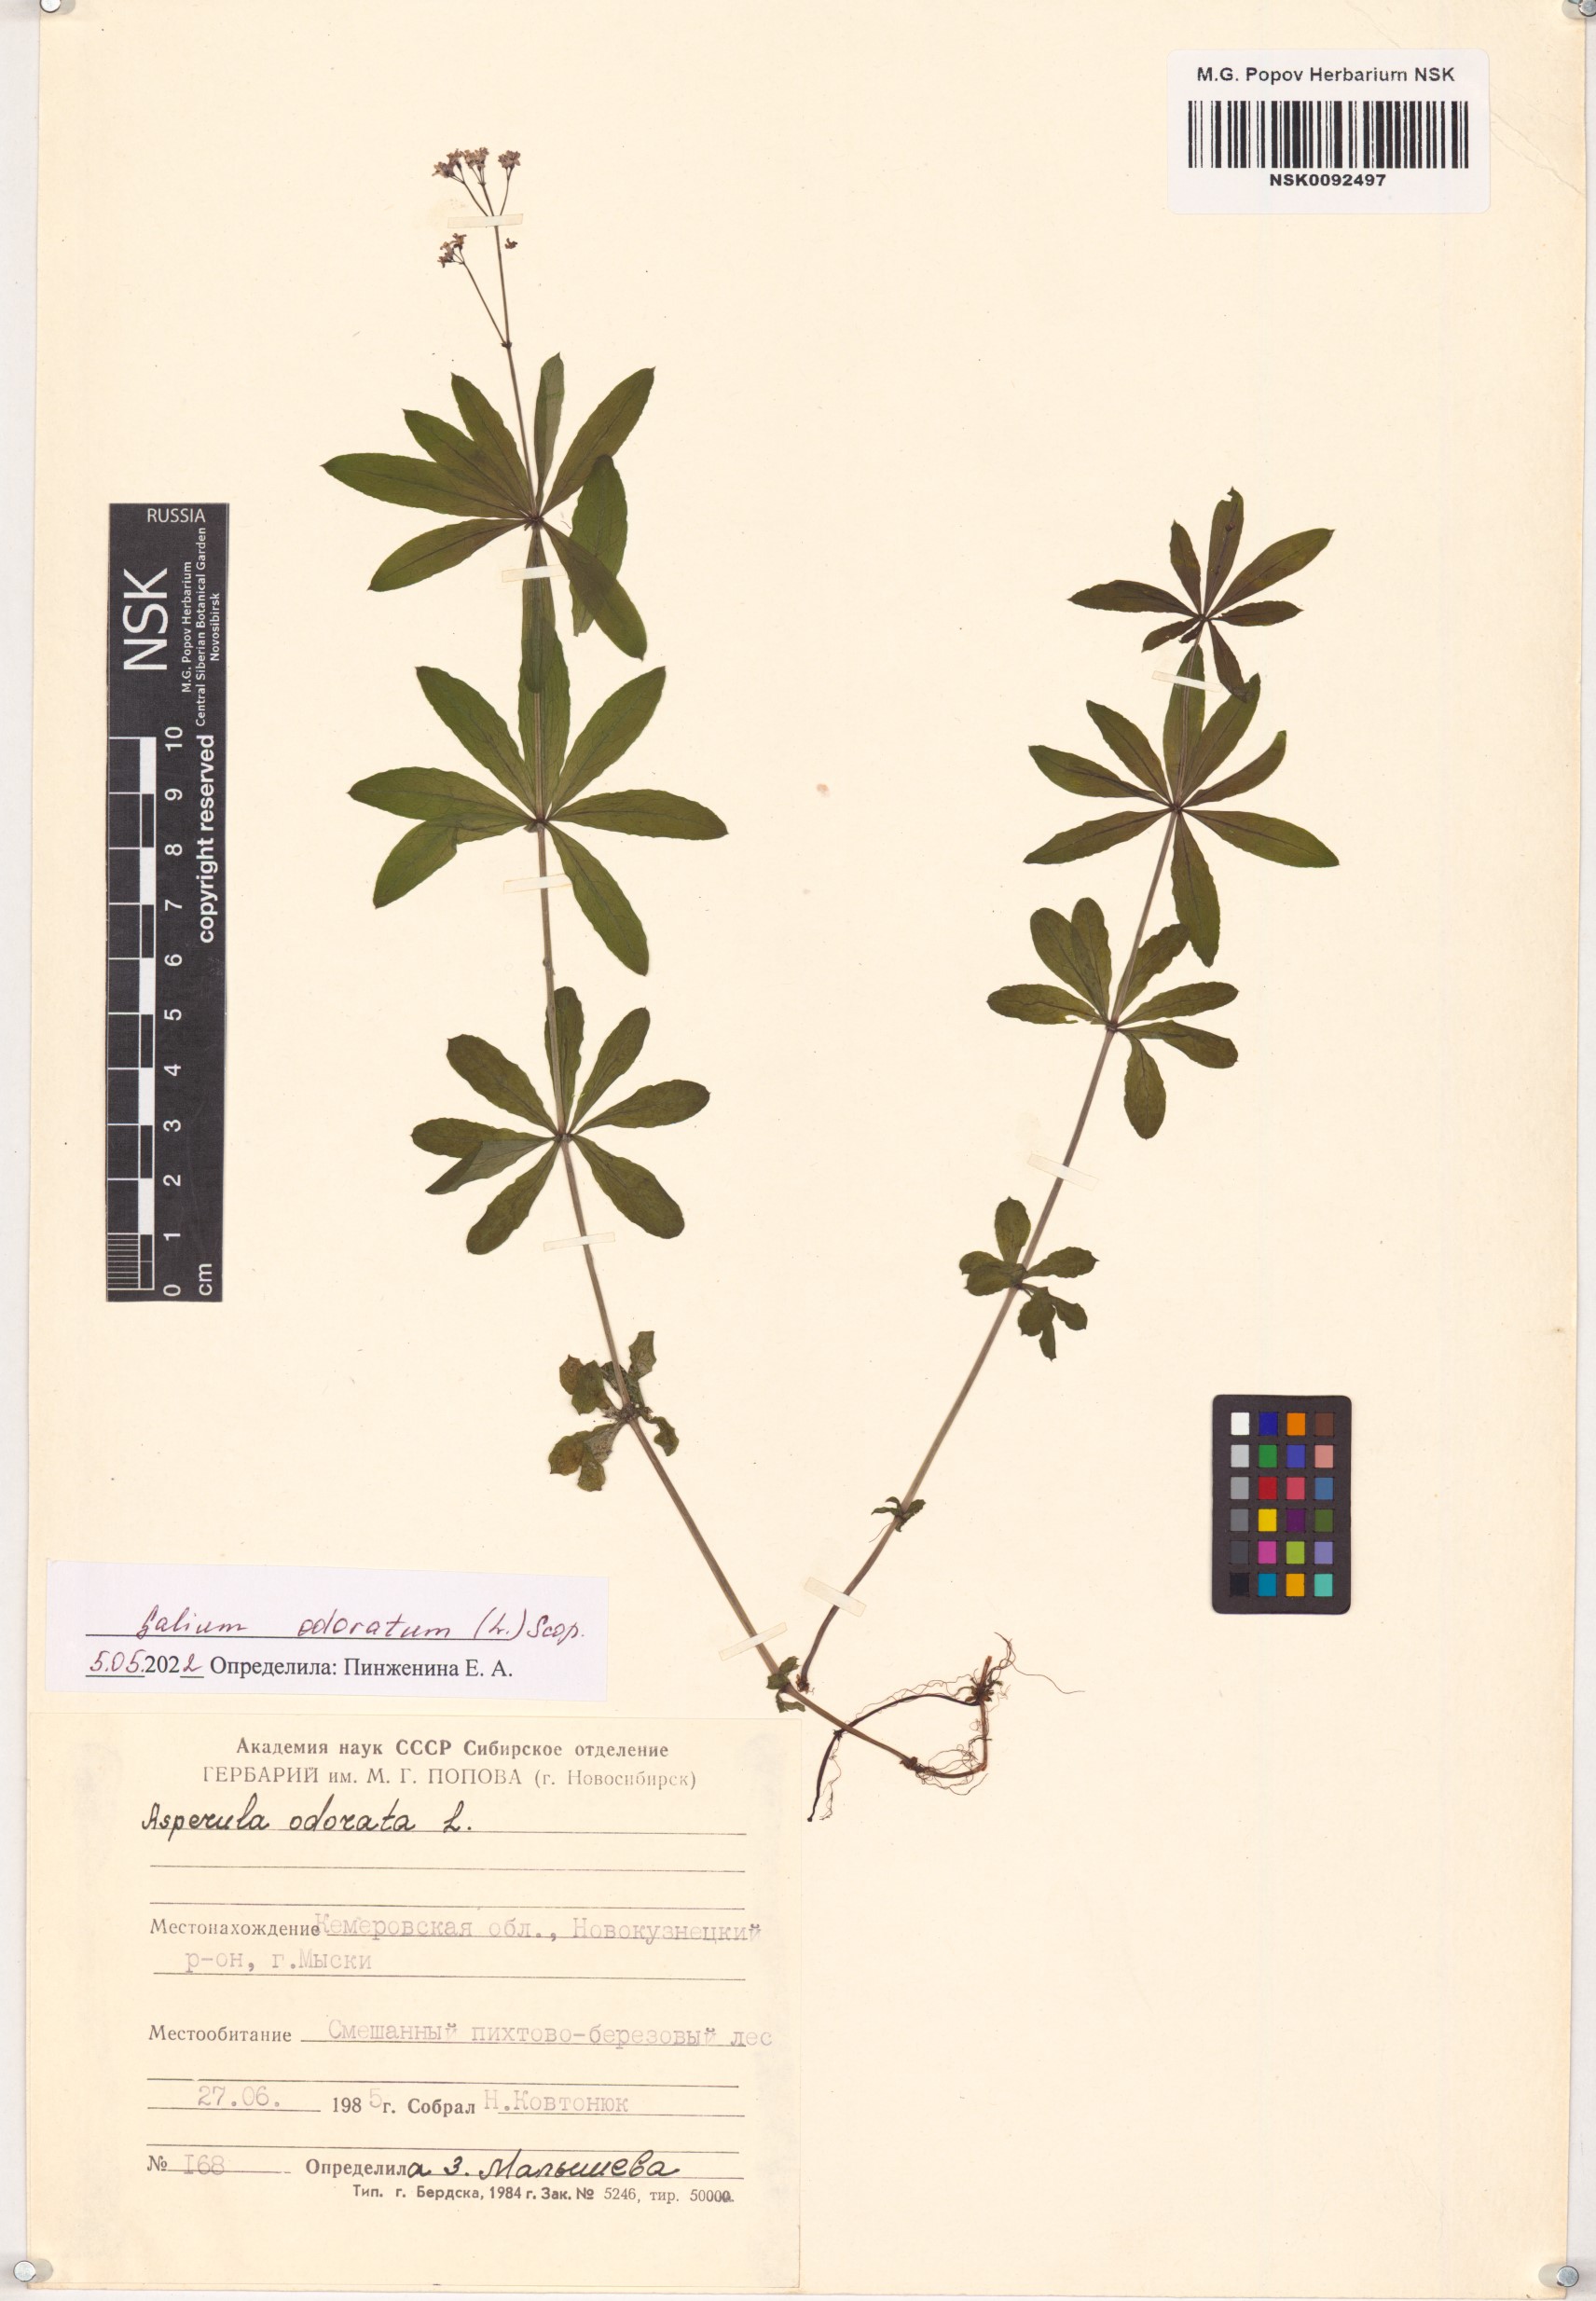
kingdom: Plantae
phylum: Tracheophyta
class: Magnoliopsida
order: Gentianales
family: Rubiaceae
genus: Galium
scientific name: Galium odoratum
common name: Sweet woodruff
